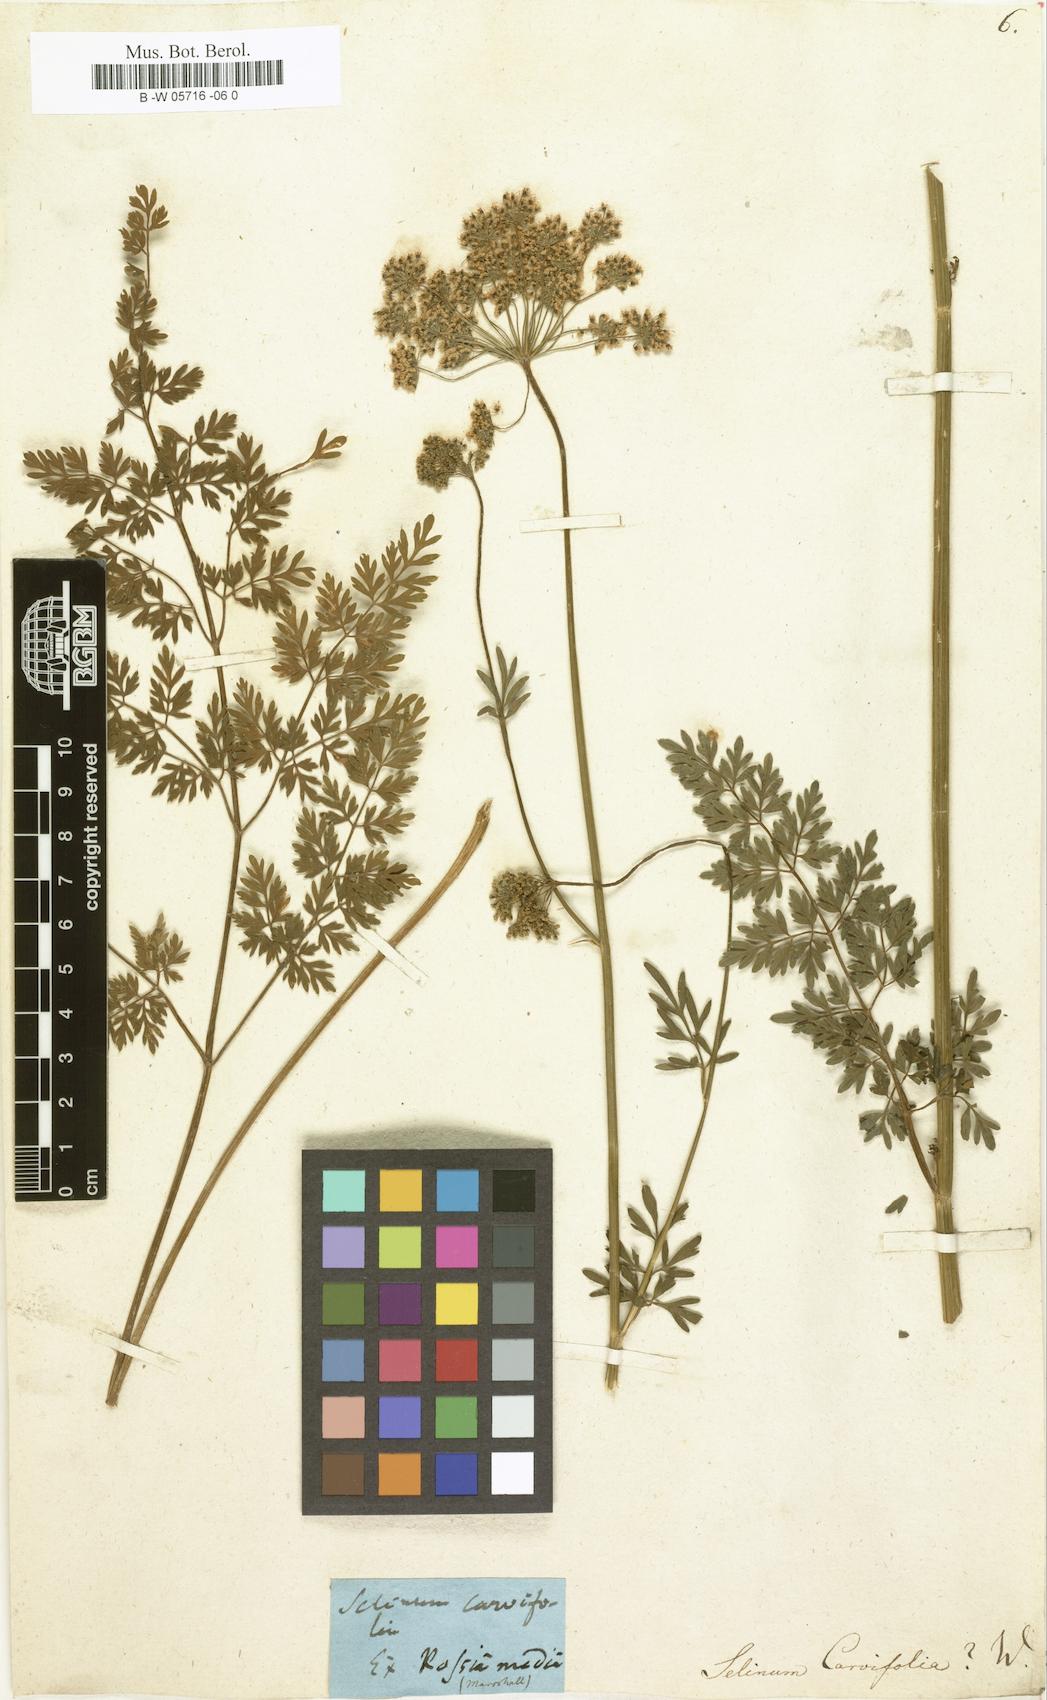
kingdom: Plantae
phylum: Tracheophyta
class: Magnoliopsida
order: Apiales
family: Apiaceae
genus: Selinum
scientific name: Selinum carvifolia
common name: Cambridge milk-parsley
